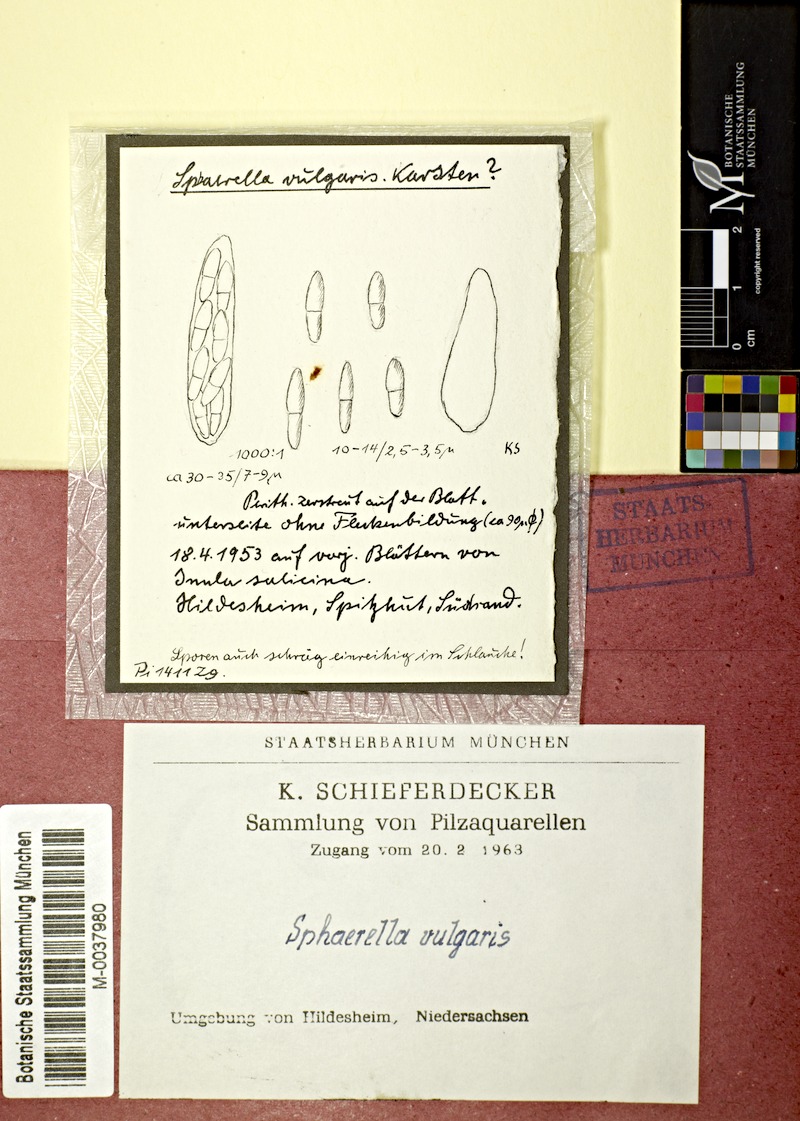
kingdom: Fungi
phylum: Ascomycota
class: Dothideomycetes
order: Mycosphaerellales
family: Mycosphaerellaceae
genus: Mycosphaerella
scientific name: Mycosphaerella maculiformis
